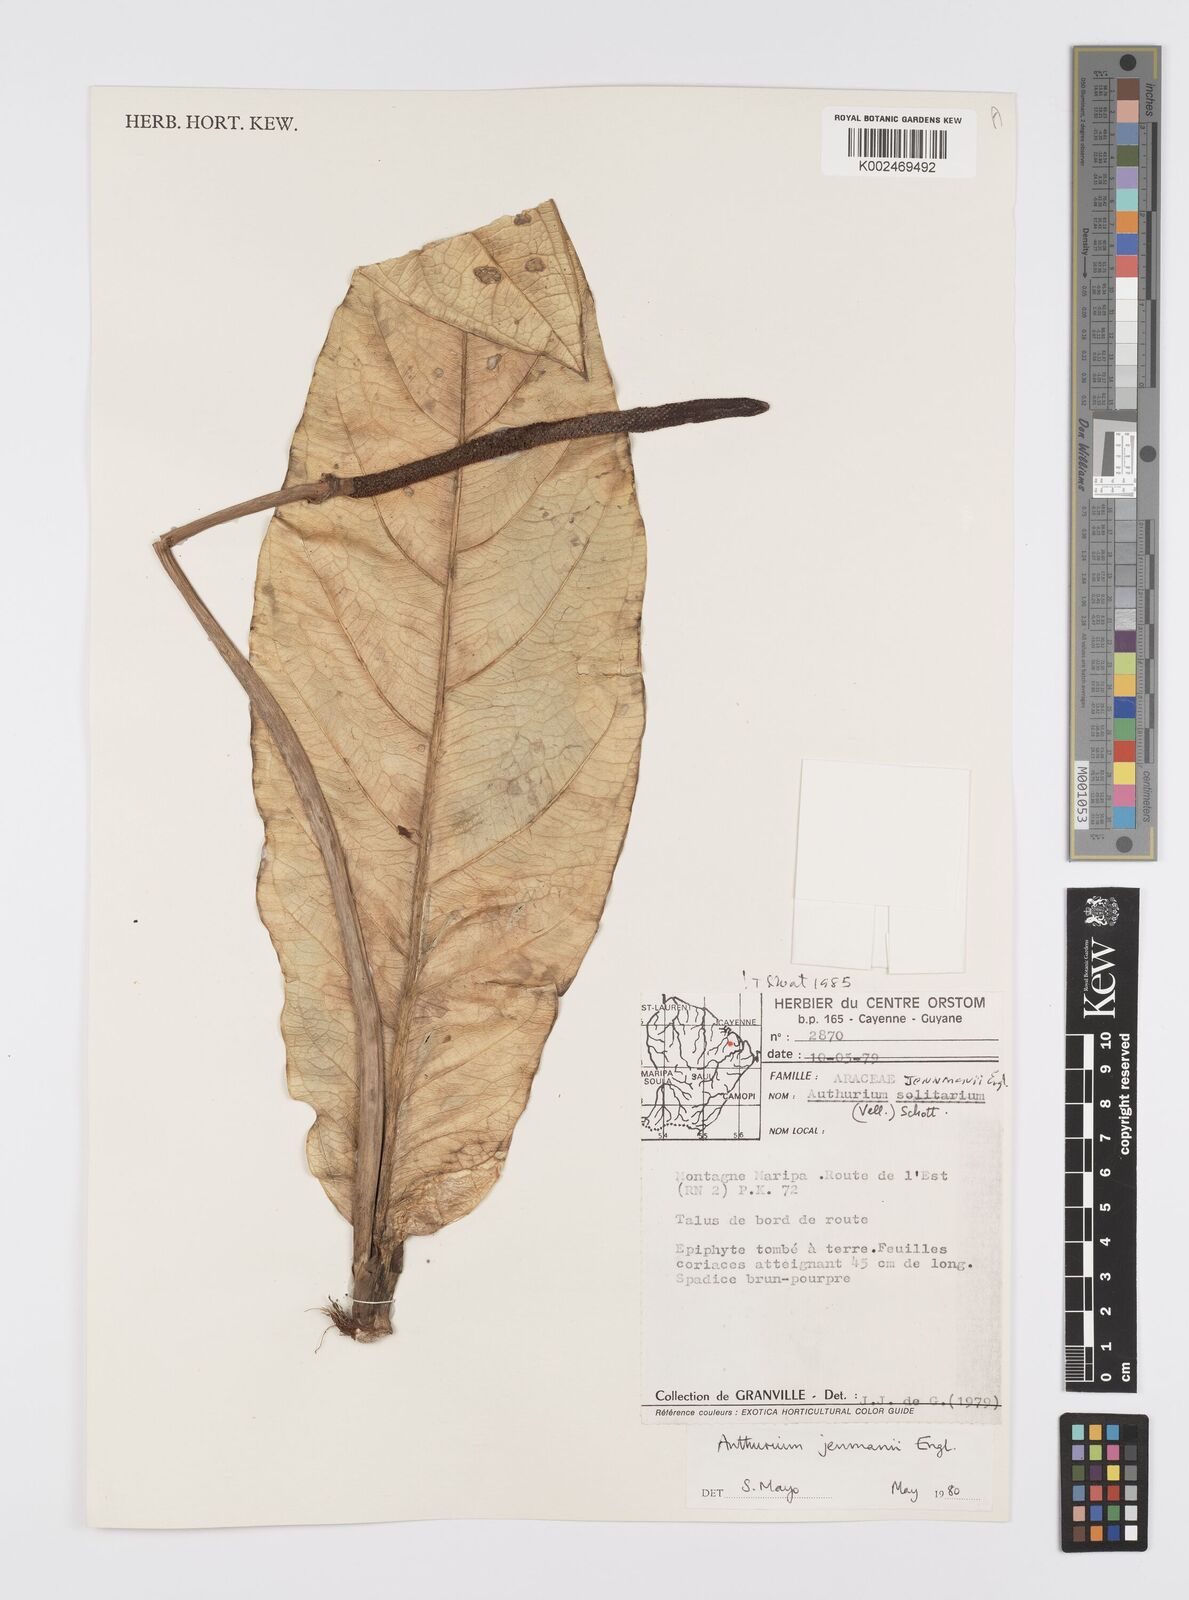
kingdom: Plantae
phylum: Tracheophyta
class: Liliopsida
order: Alismatales
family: Araceae
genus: Anthurium
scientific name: Anthurium jenmanii
